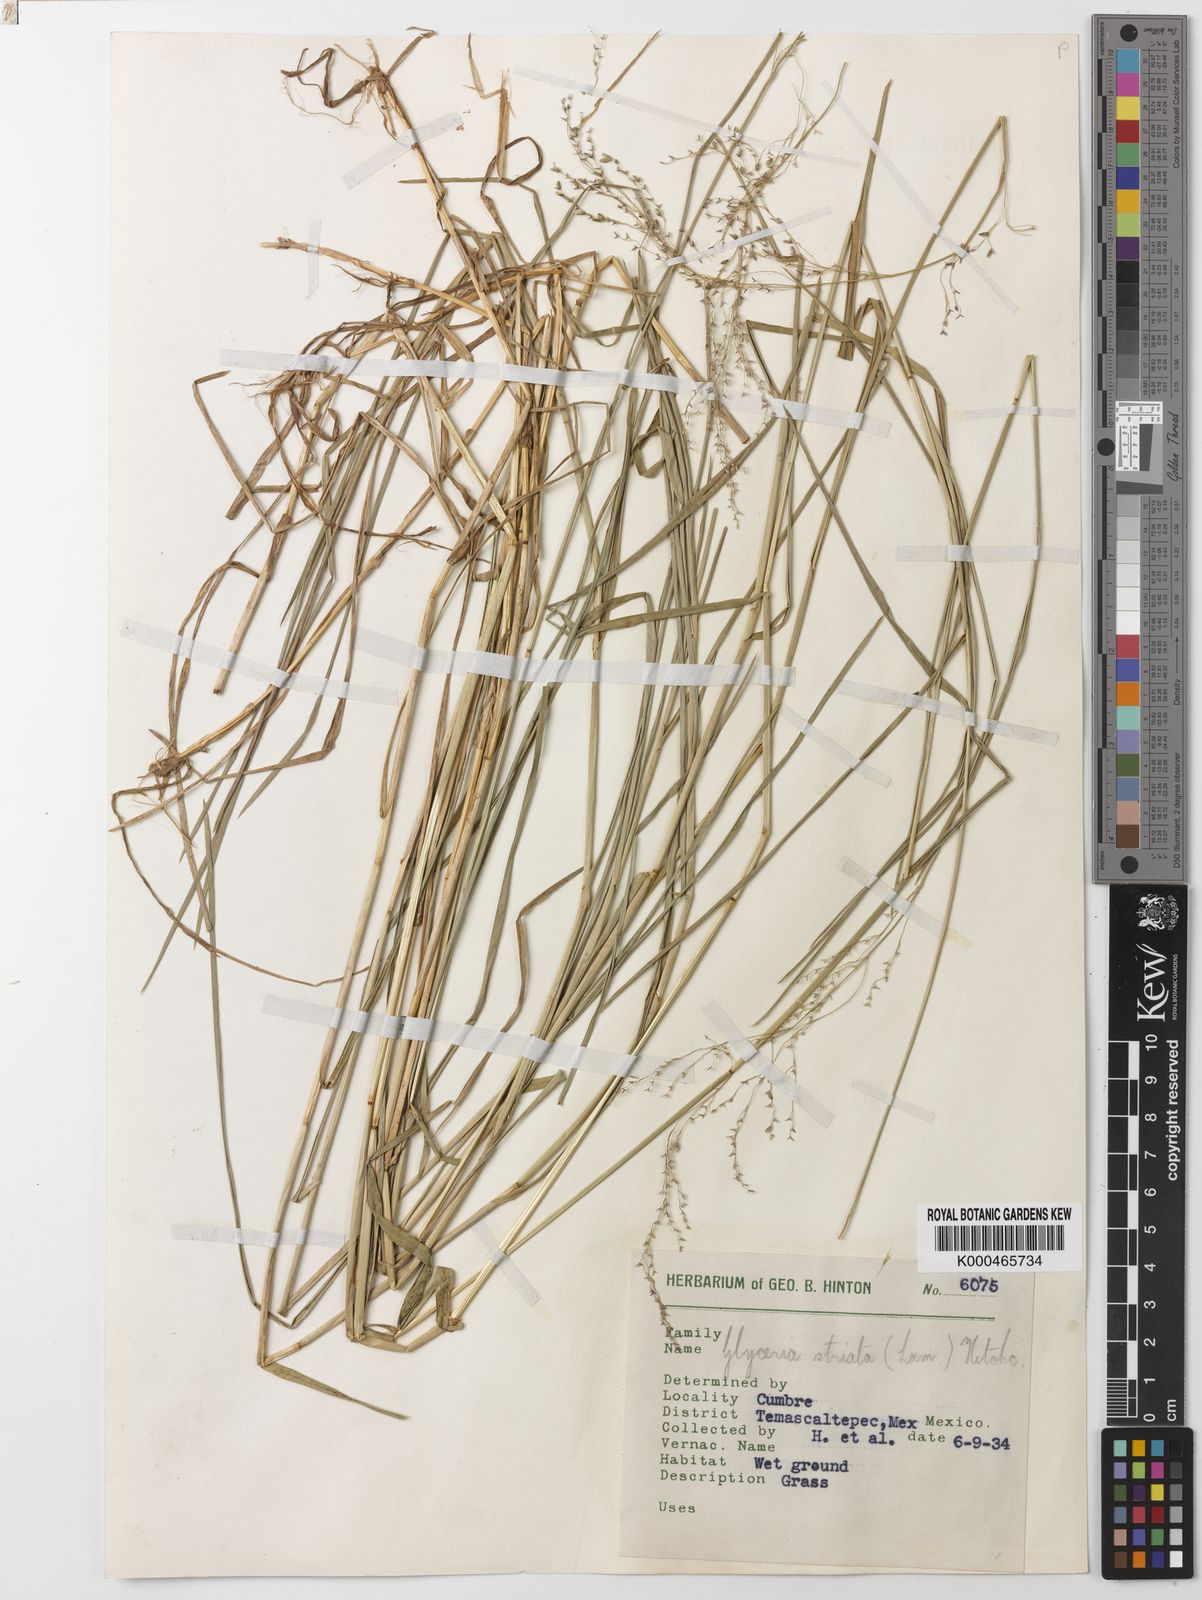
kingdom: Plantae
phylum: Tracheophyta
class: Liliopsida
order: Poales
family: Poaceae
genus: Glyceria
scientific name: Glyceria striata
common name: Fowl manna grass
